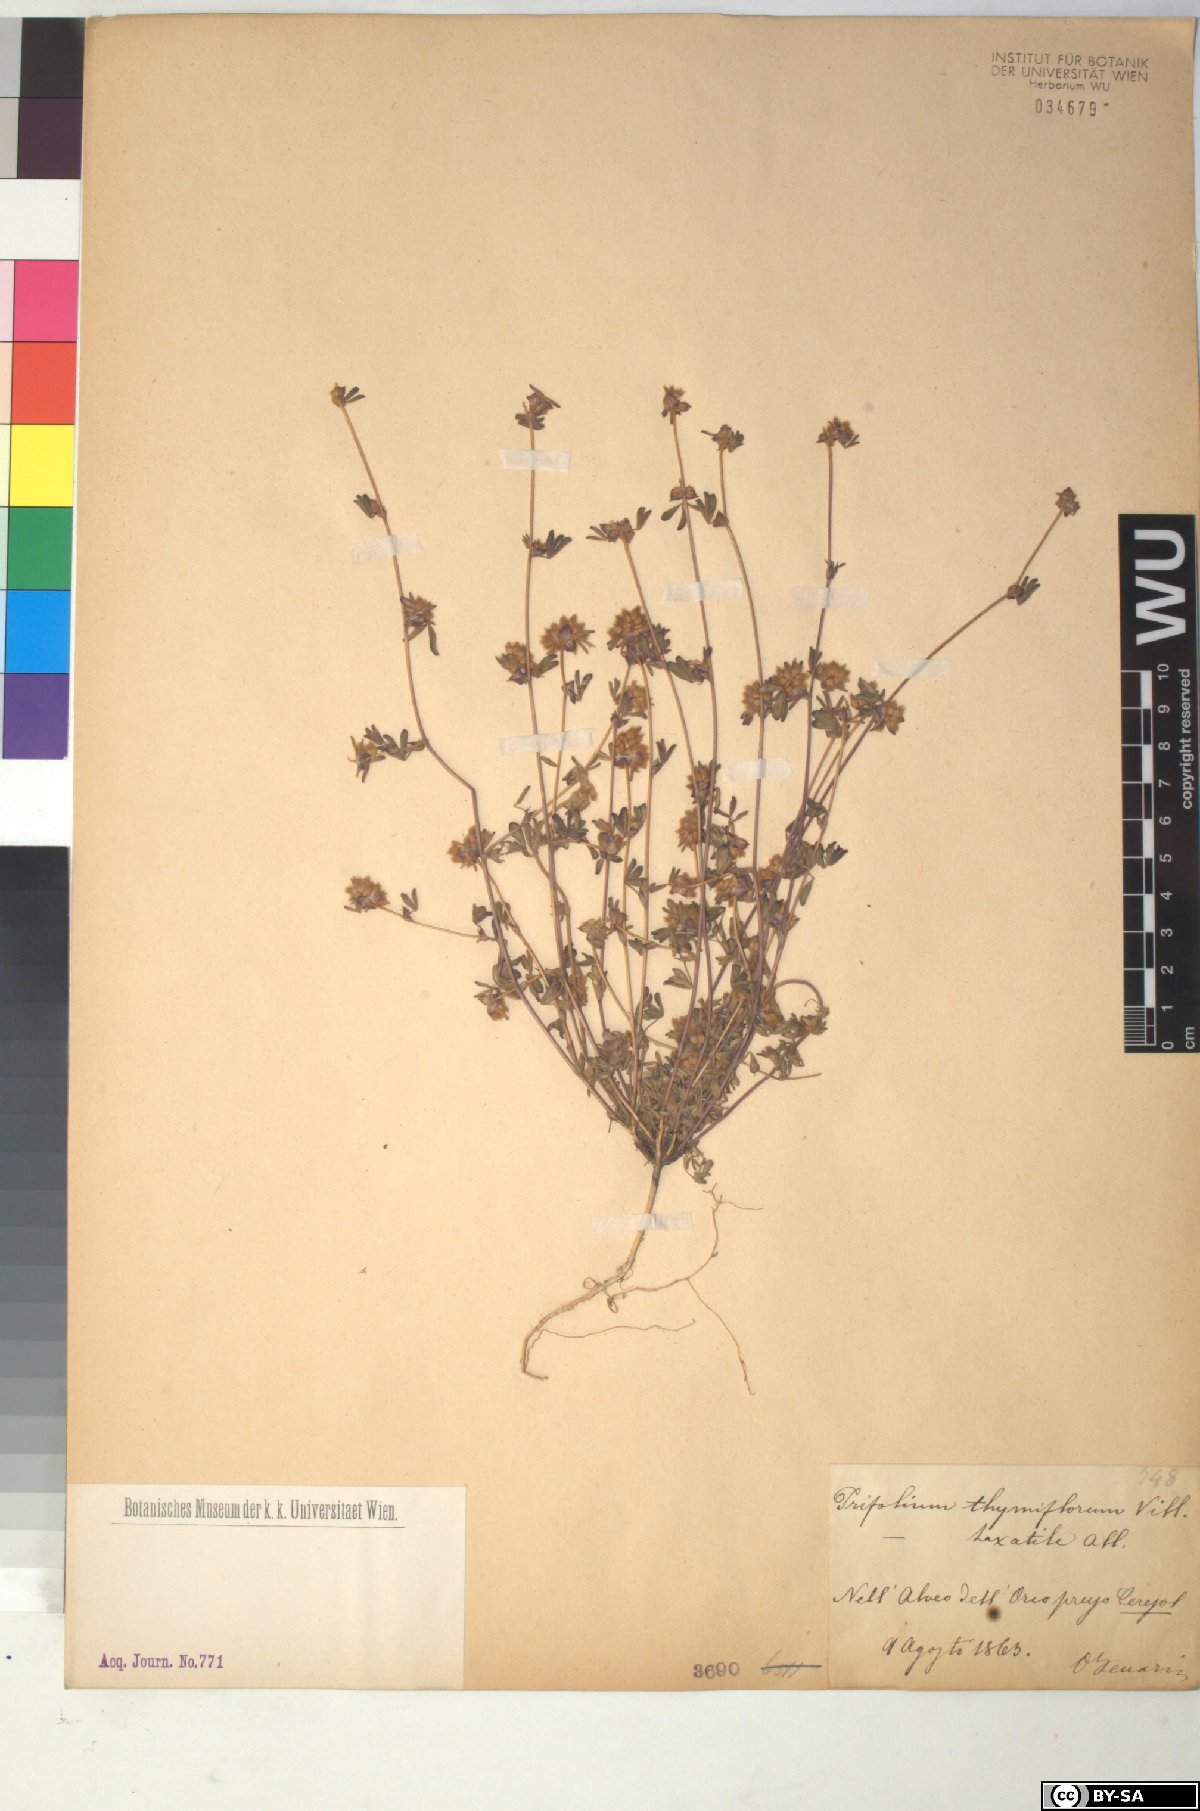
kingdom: Plantae
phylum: Tracheophyta
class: Magnoliopsida
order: Fabales
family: Fabaceae
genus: Trifolium
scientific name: Trifolium saxatile
